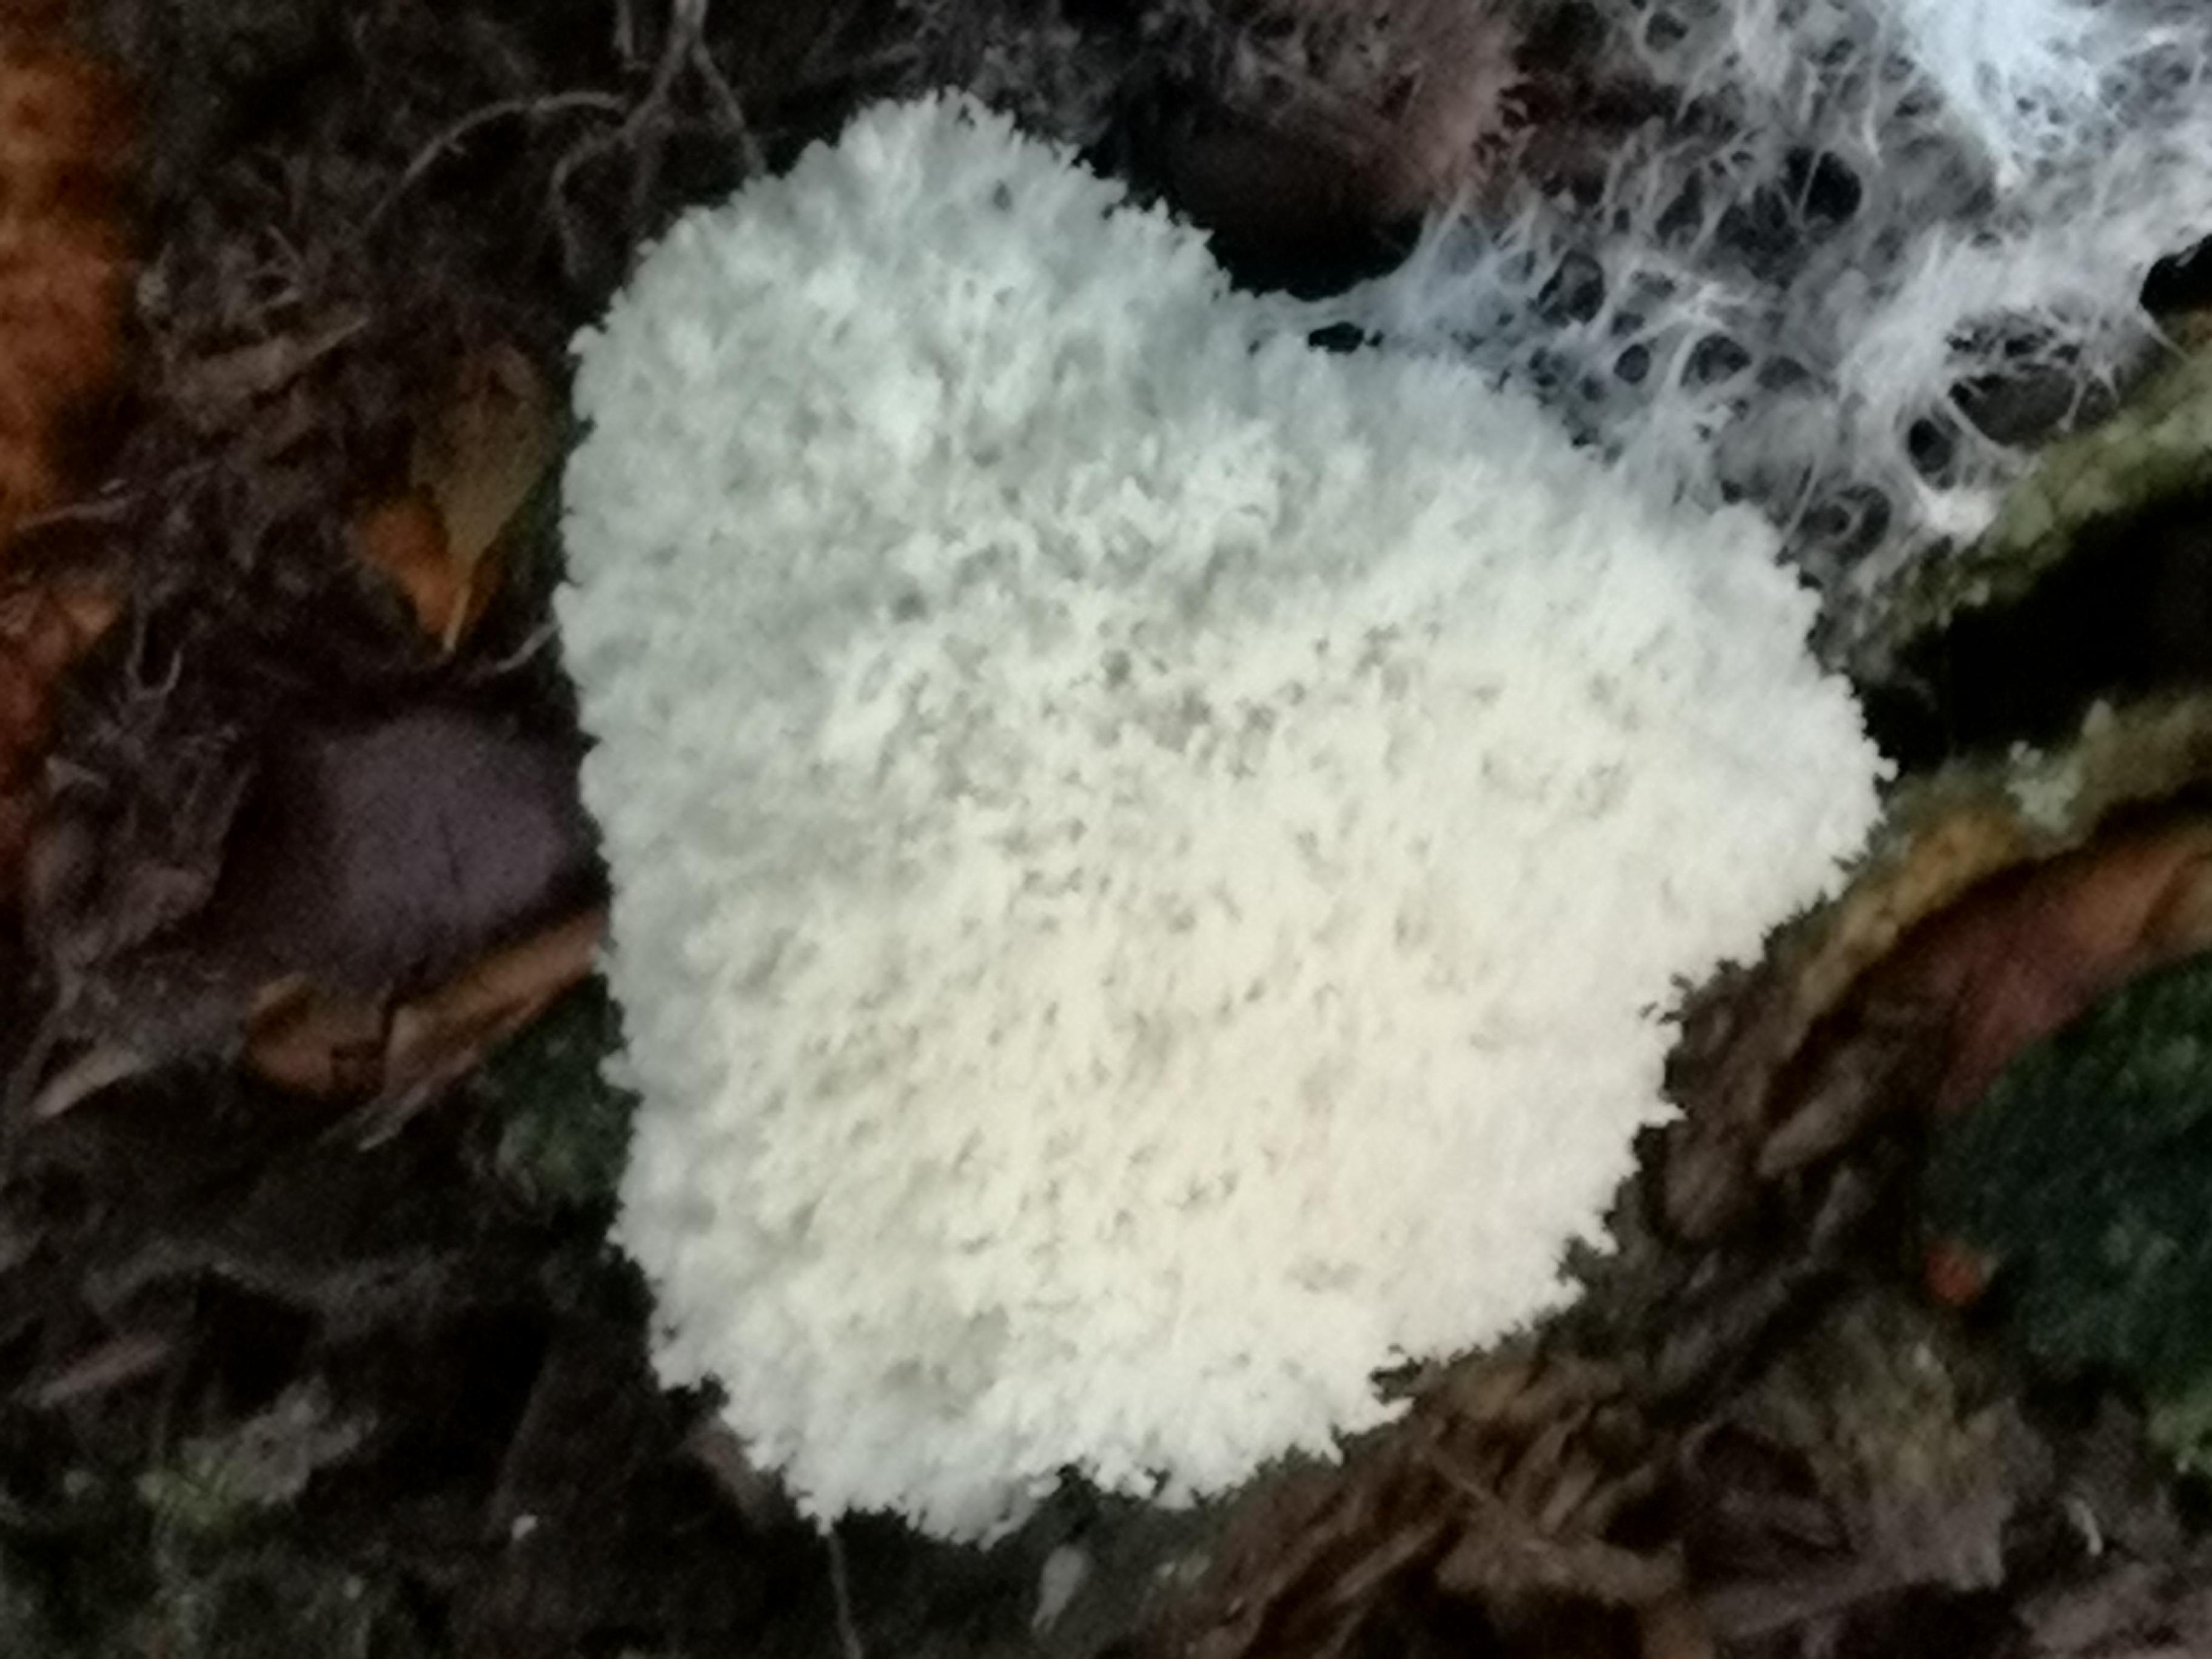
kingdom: Protozoa
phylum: Mycetozoa
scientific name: Mycetozoa
